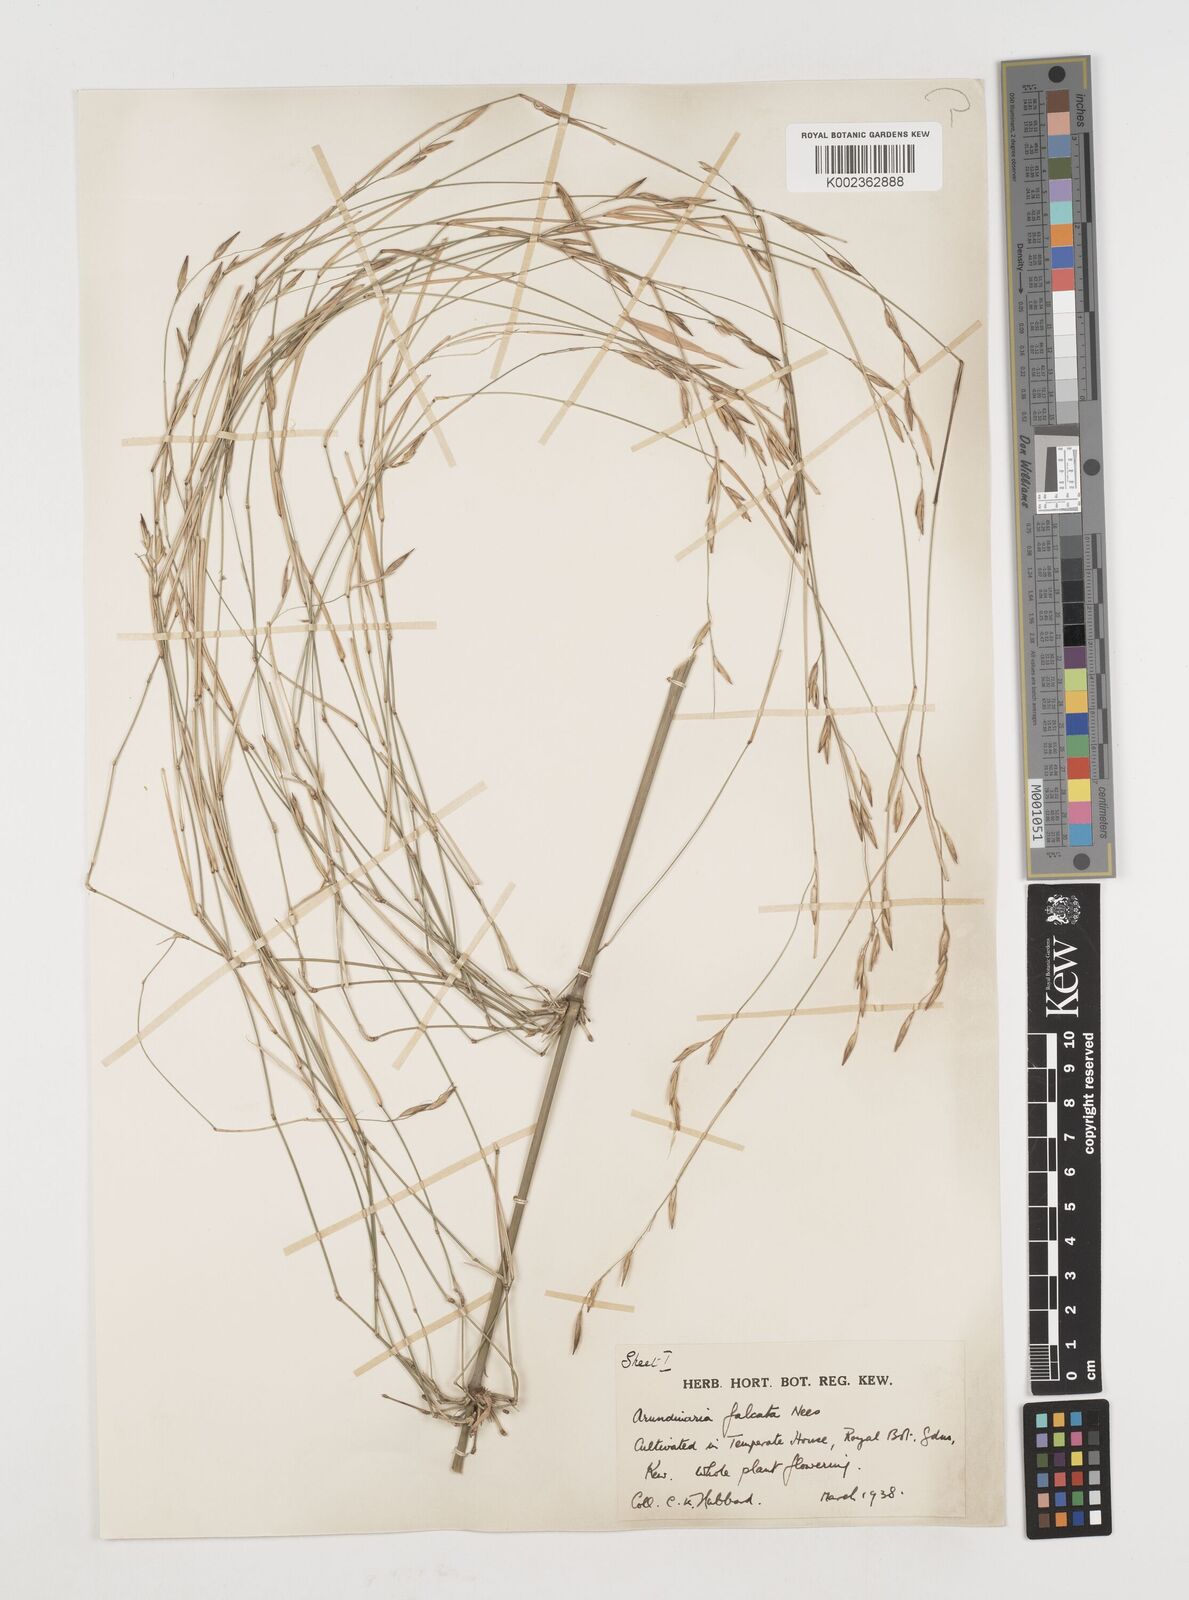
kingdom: Plantae
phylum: Tracheophyta
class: Liliopsida
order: Poales
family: Poaceae
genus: Drepanostachyum
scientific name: Drepanostachyum falcatum
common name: Himalayan bamboo
